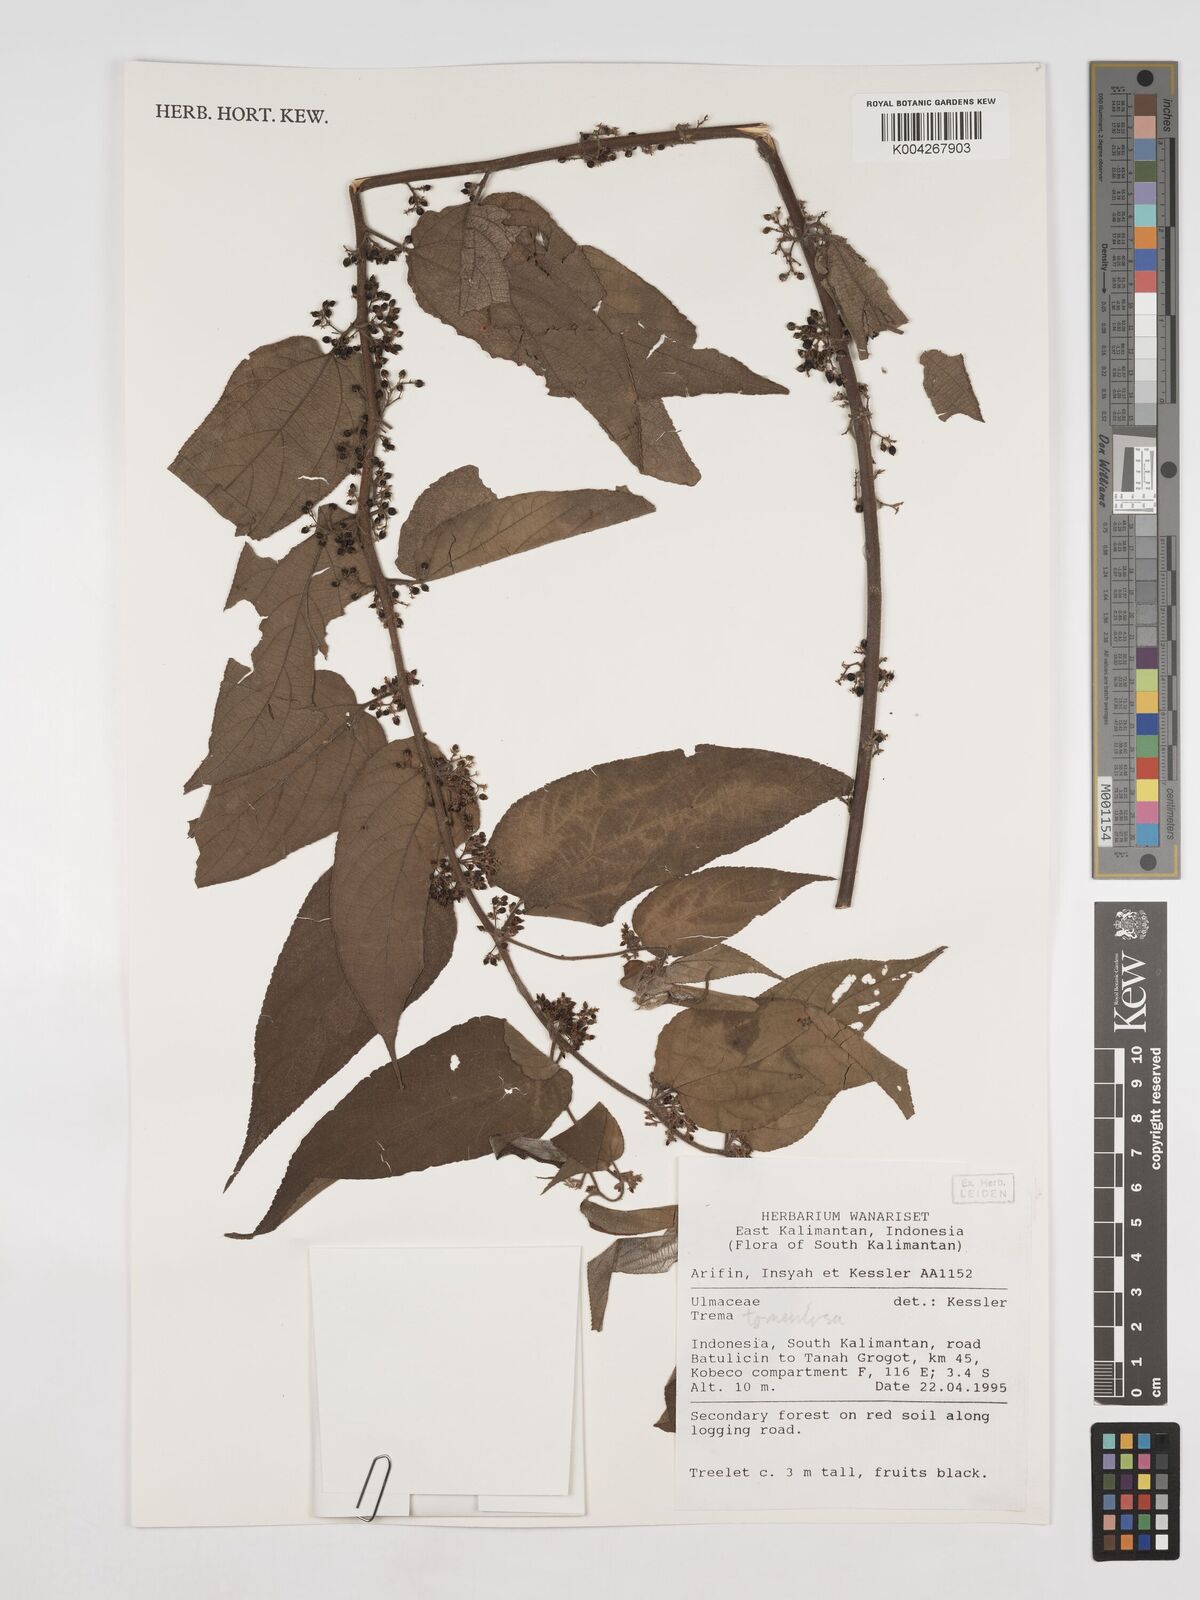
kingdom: Plantae
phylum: Tracheophyta
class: Magnoliopsida
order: Rosales
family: Cannabaceae
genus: Trema
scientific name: Trema tomentosum
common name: Peach-leaf-poisonbush
